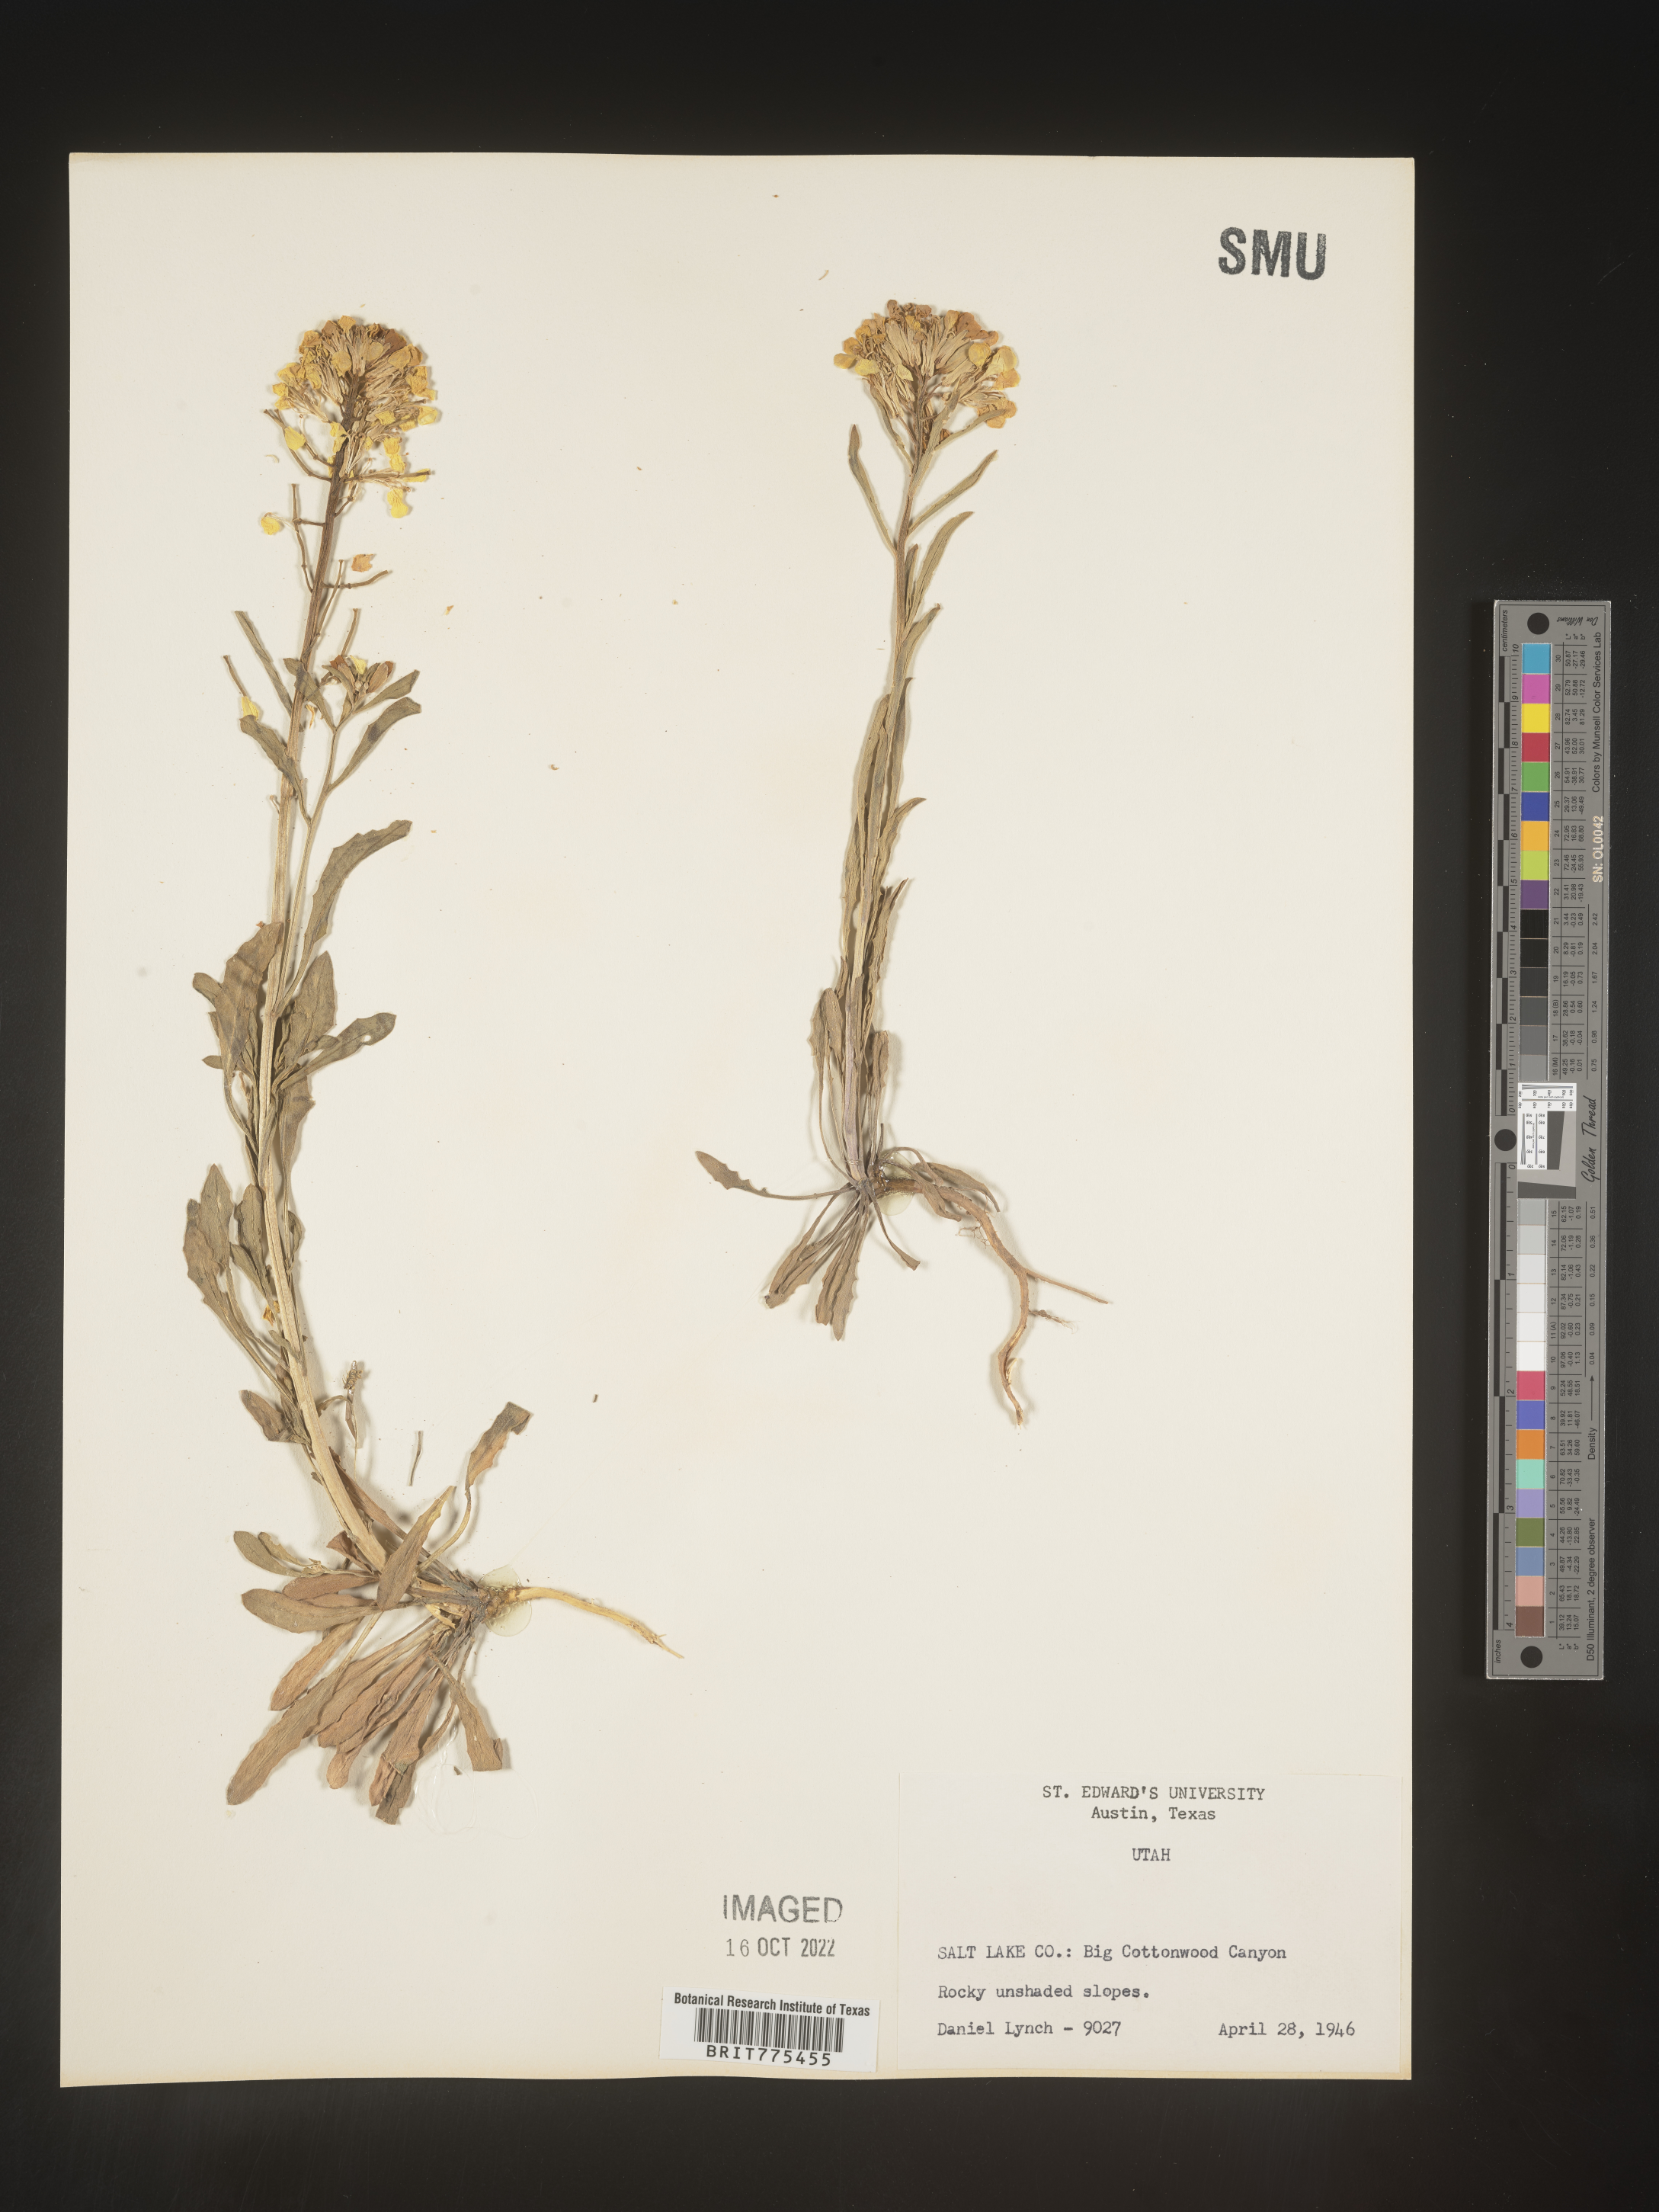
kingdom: Plantae
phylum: Tracheophyta
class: Magnoliopsida
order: Brassicales
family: Brassicaceae
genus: Erysimum
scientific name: Erysimum
